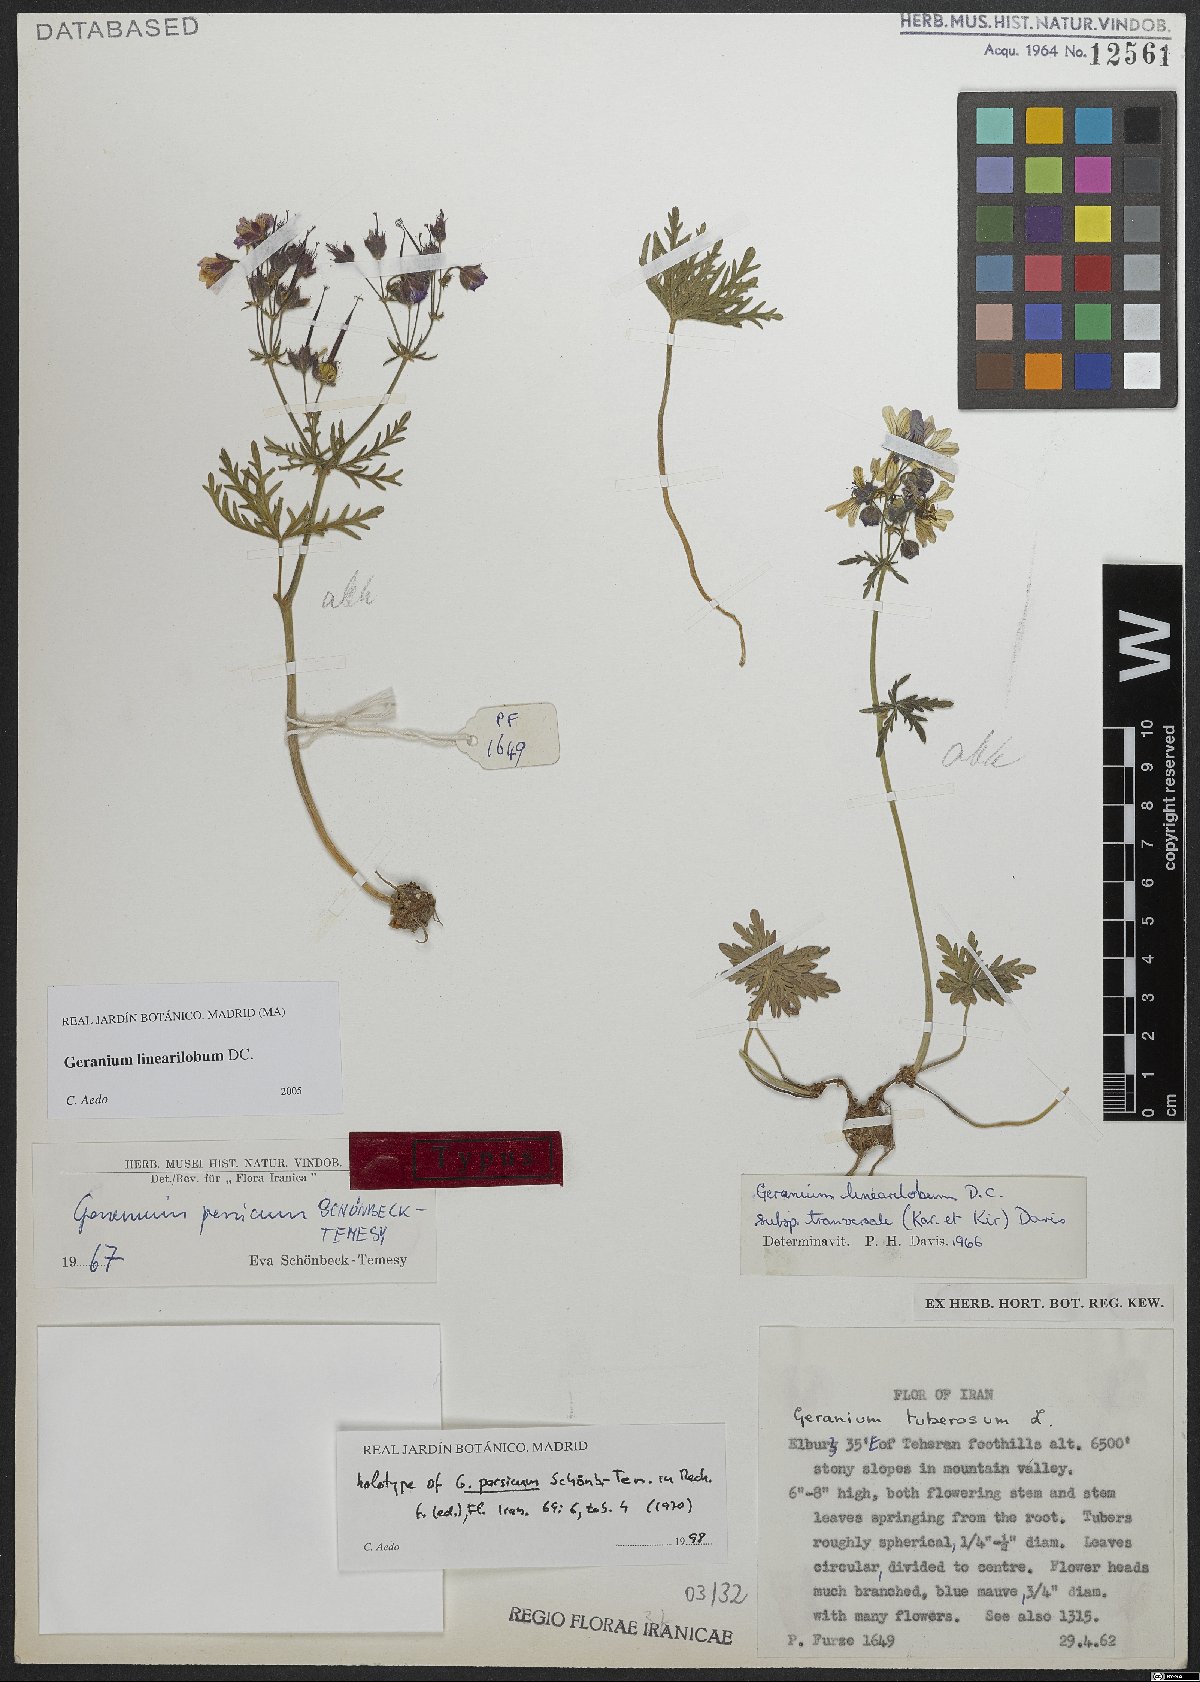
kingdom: Plantae
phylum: Tracheophyta
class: Magnoliopsida
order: Geraniales
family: Geraniaceae
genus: Geranium
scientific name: Geranium linearilobum
